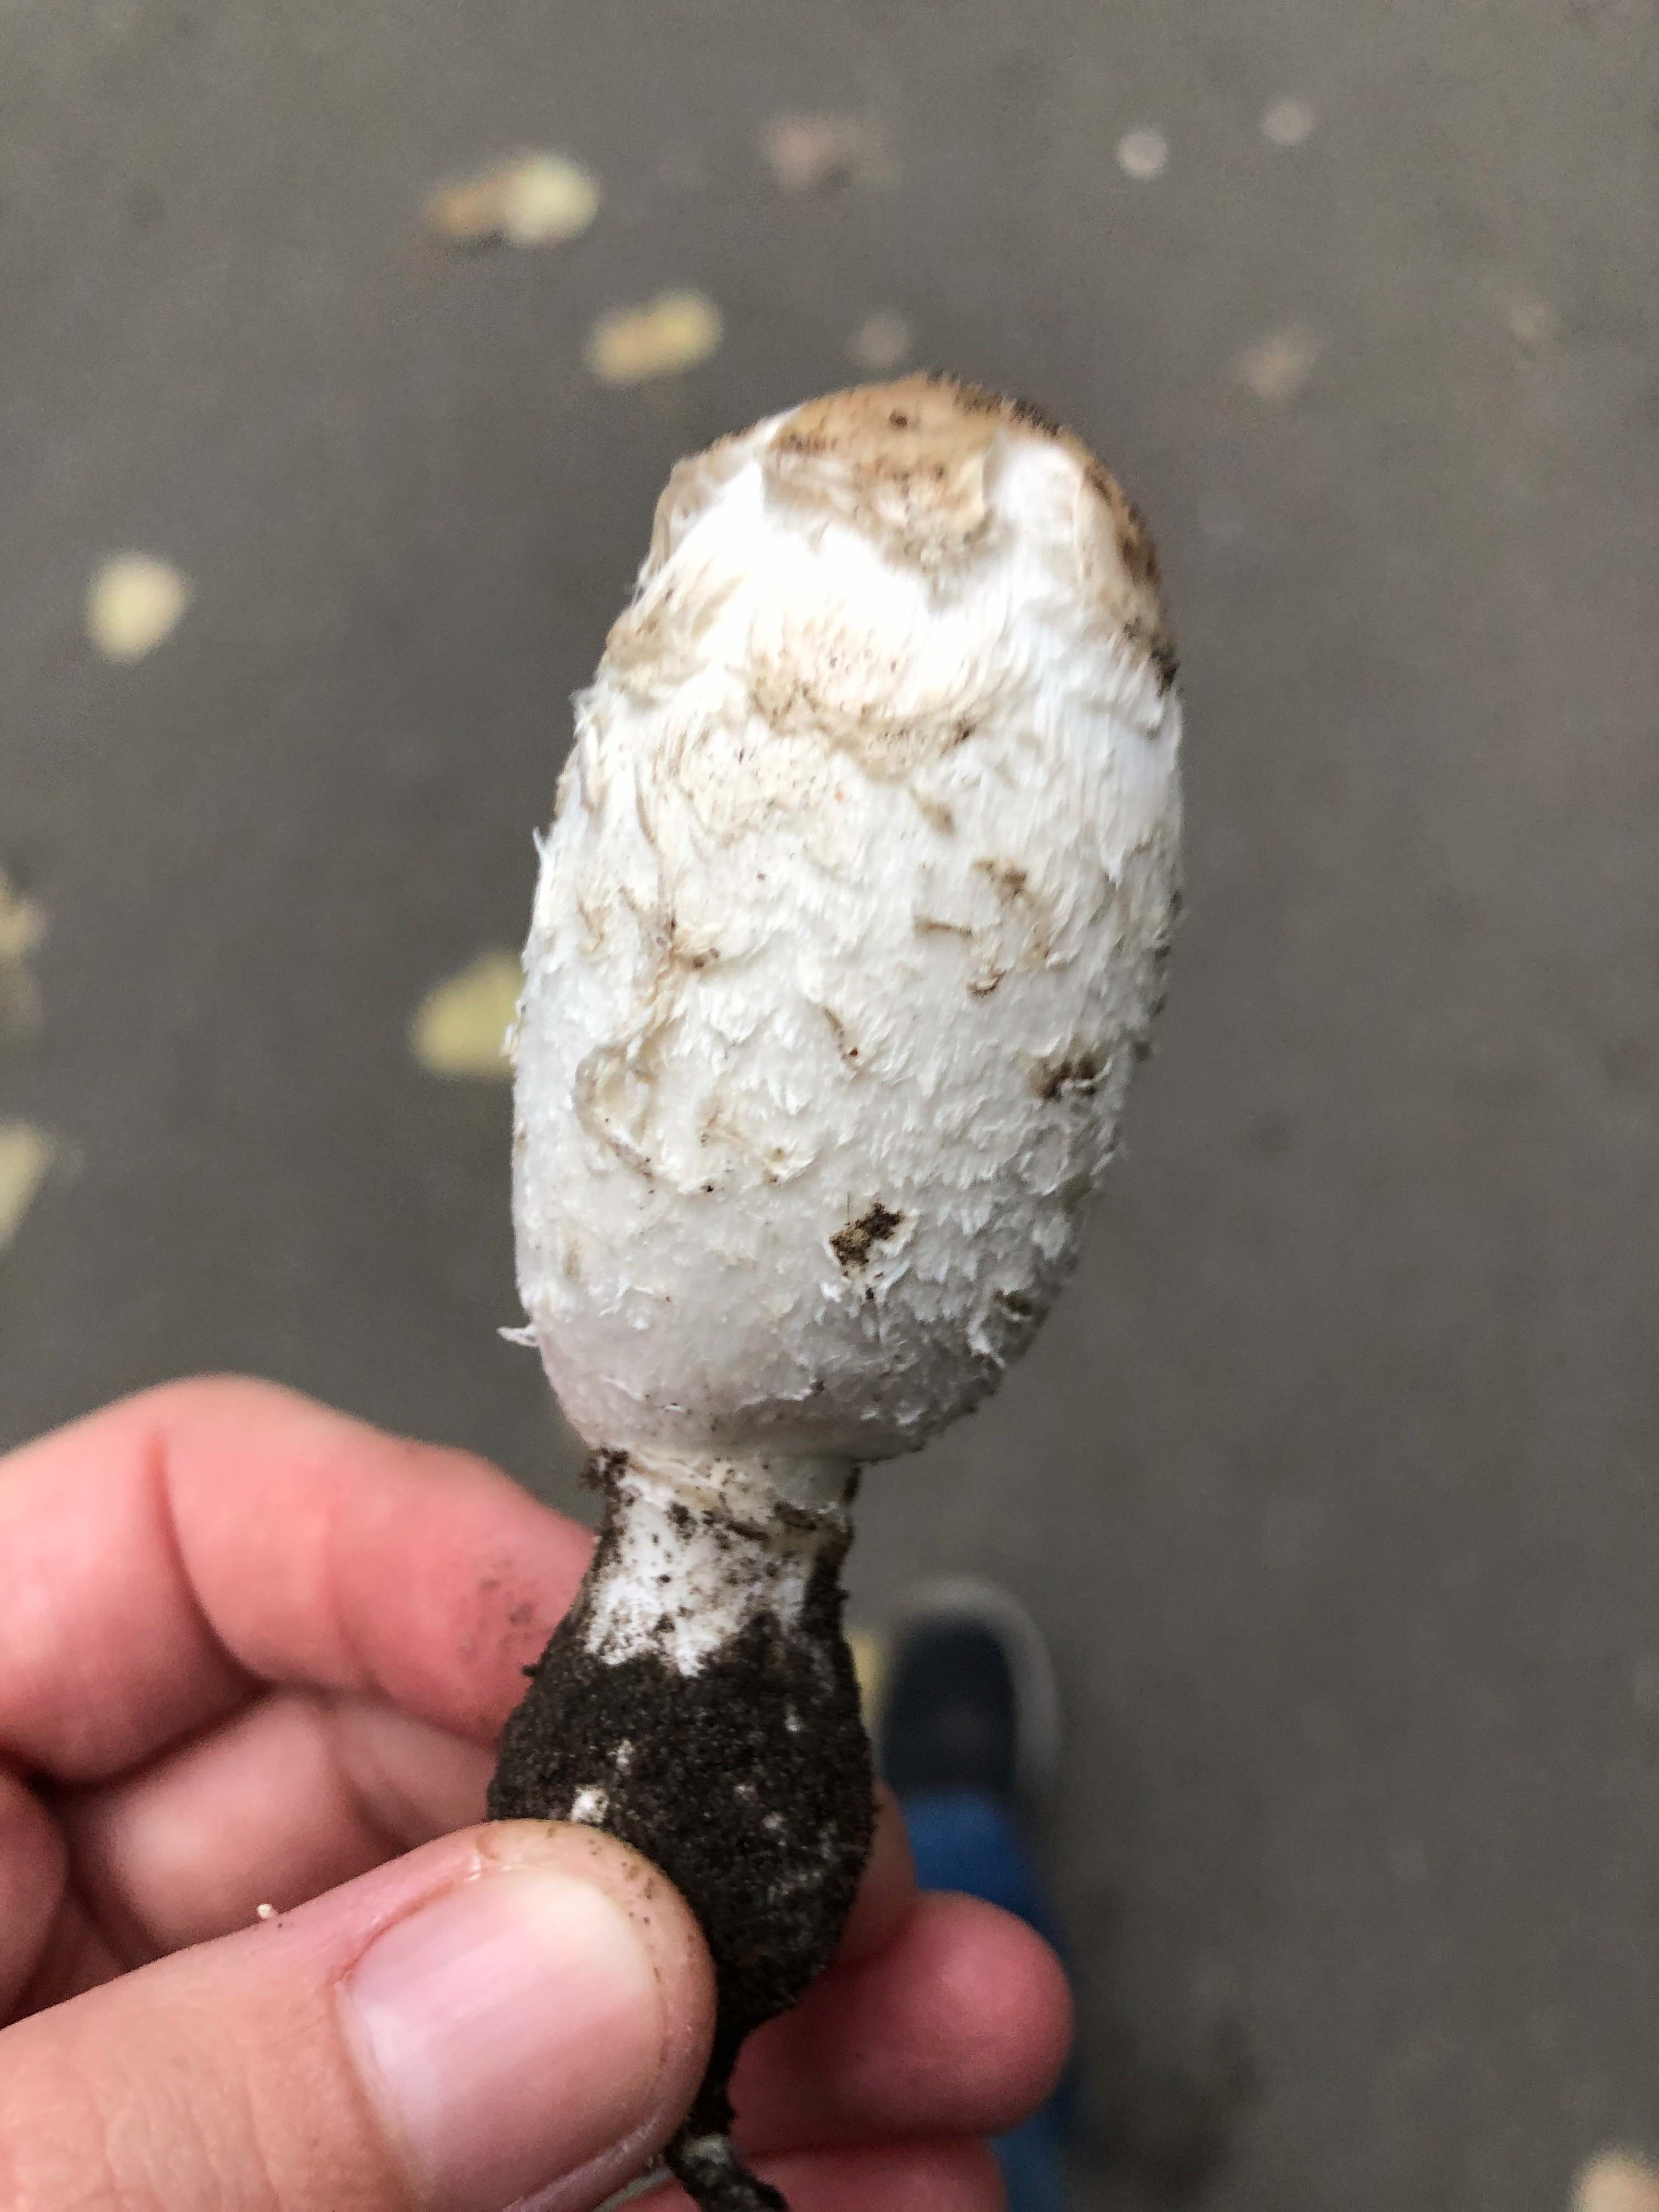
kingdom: Fungi
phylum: Basidiomycota
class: Agaricomycetes
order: Agaricales
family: Agaricaceae
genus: Coprinus
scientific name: Coprinus comatus
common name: stor parykhat
